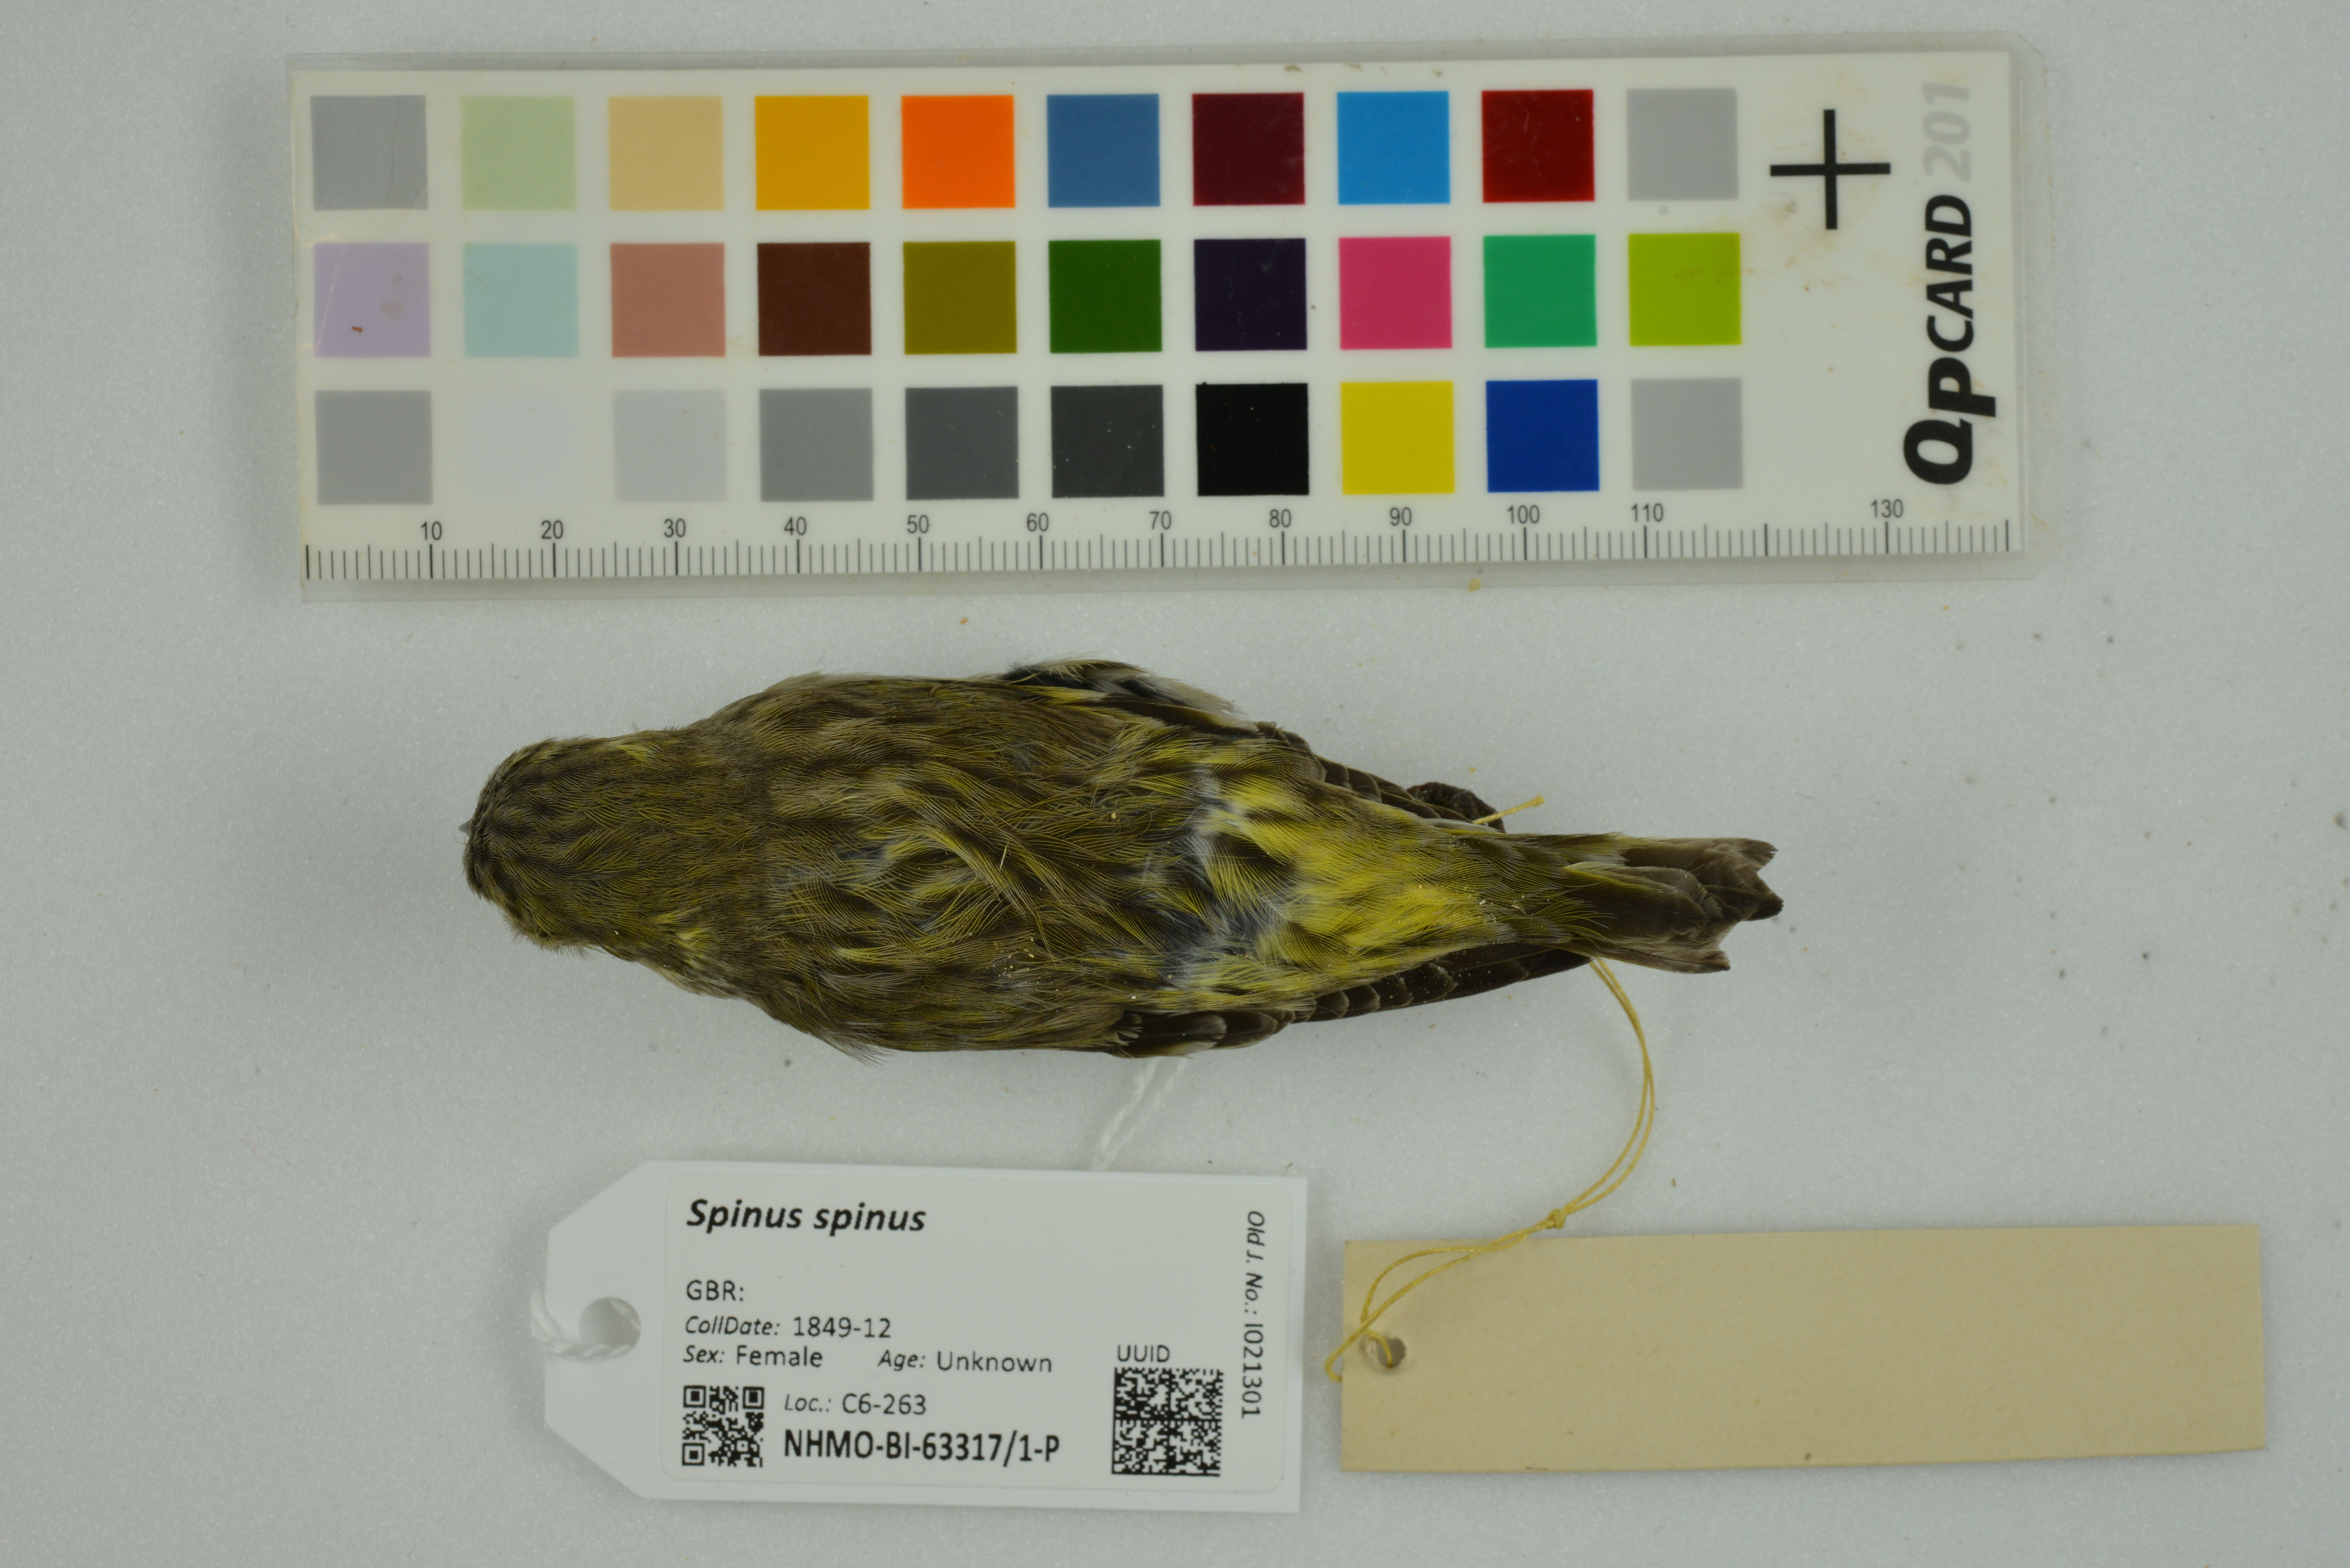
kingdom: Animalia
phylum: Chordata
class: Aves
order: Passeriformes
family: Fringillidae
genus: Spinus
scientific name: Spinus spinus
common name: Eurasian siskin
